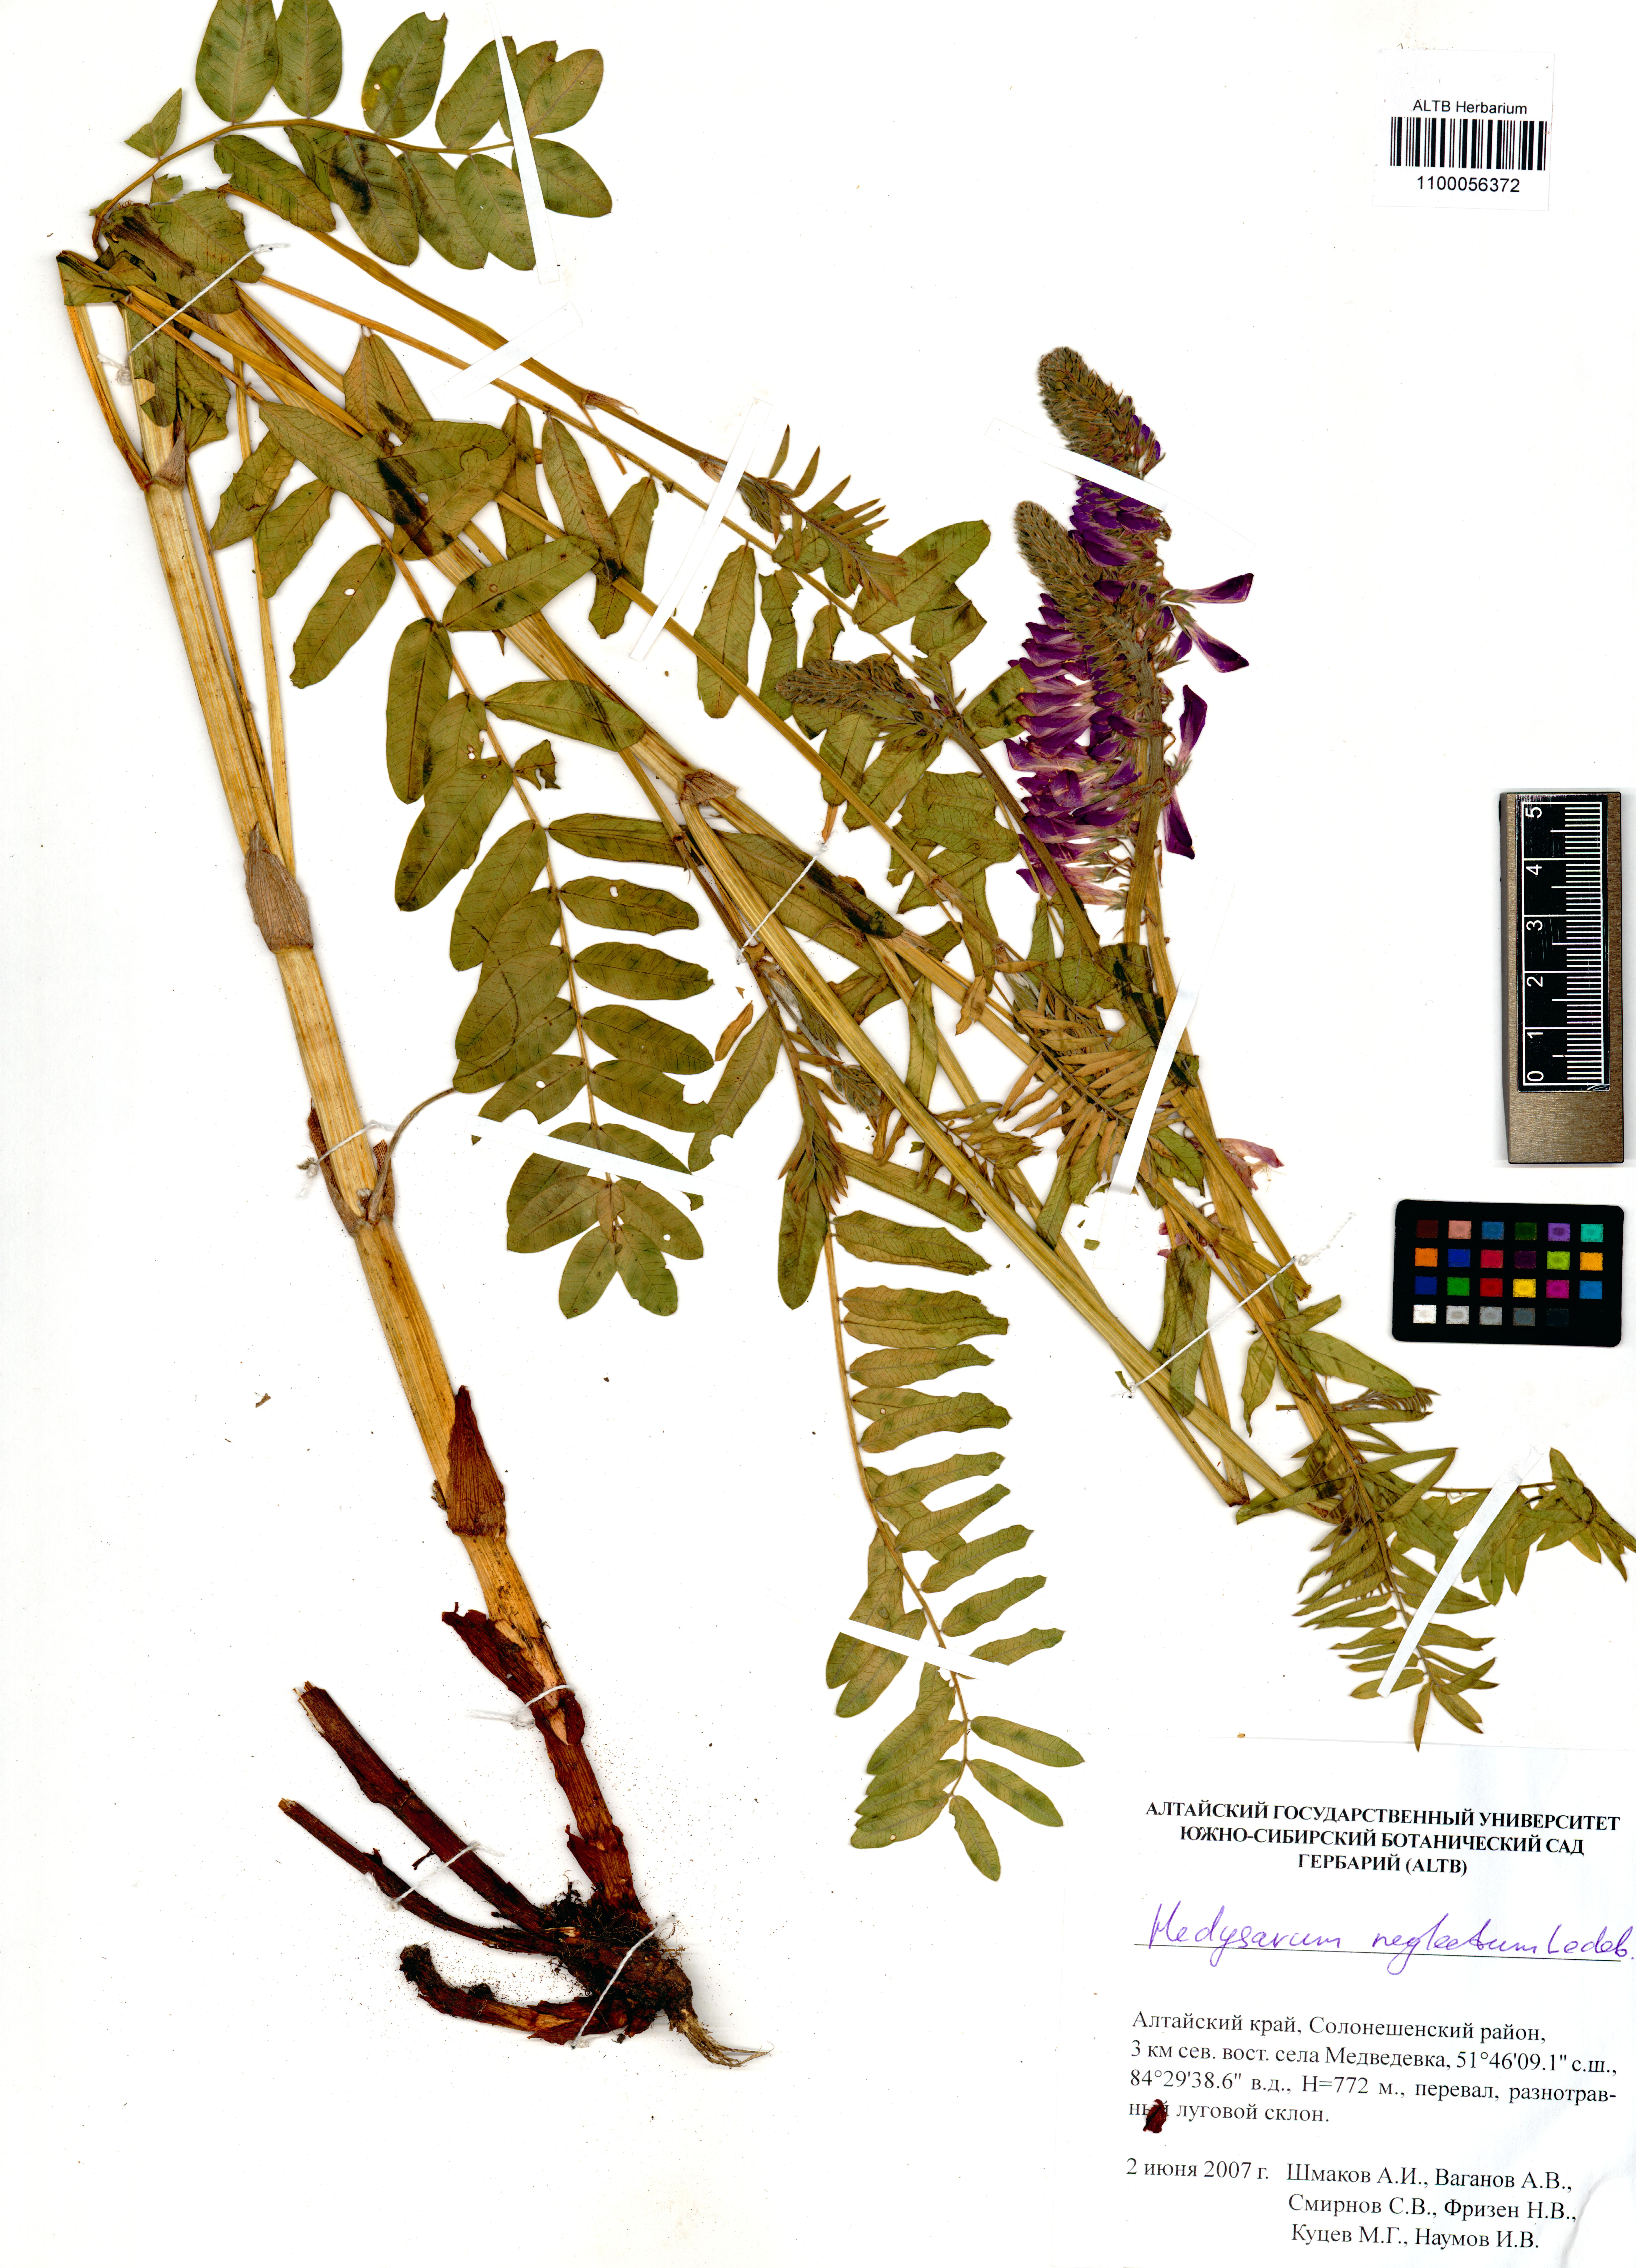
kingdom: Plantae
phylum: Tracheophyta
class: Magnoliopsida
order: Fabales
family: Fabaceae
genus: Hedysarum
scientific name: Hedysarum neglectum
